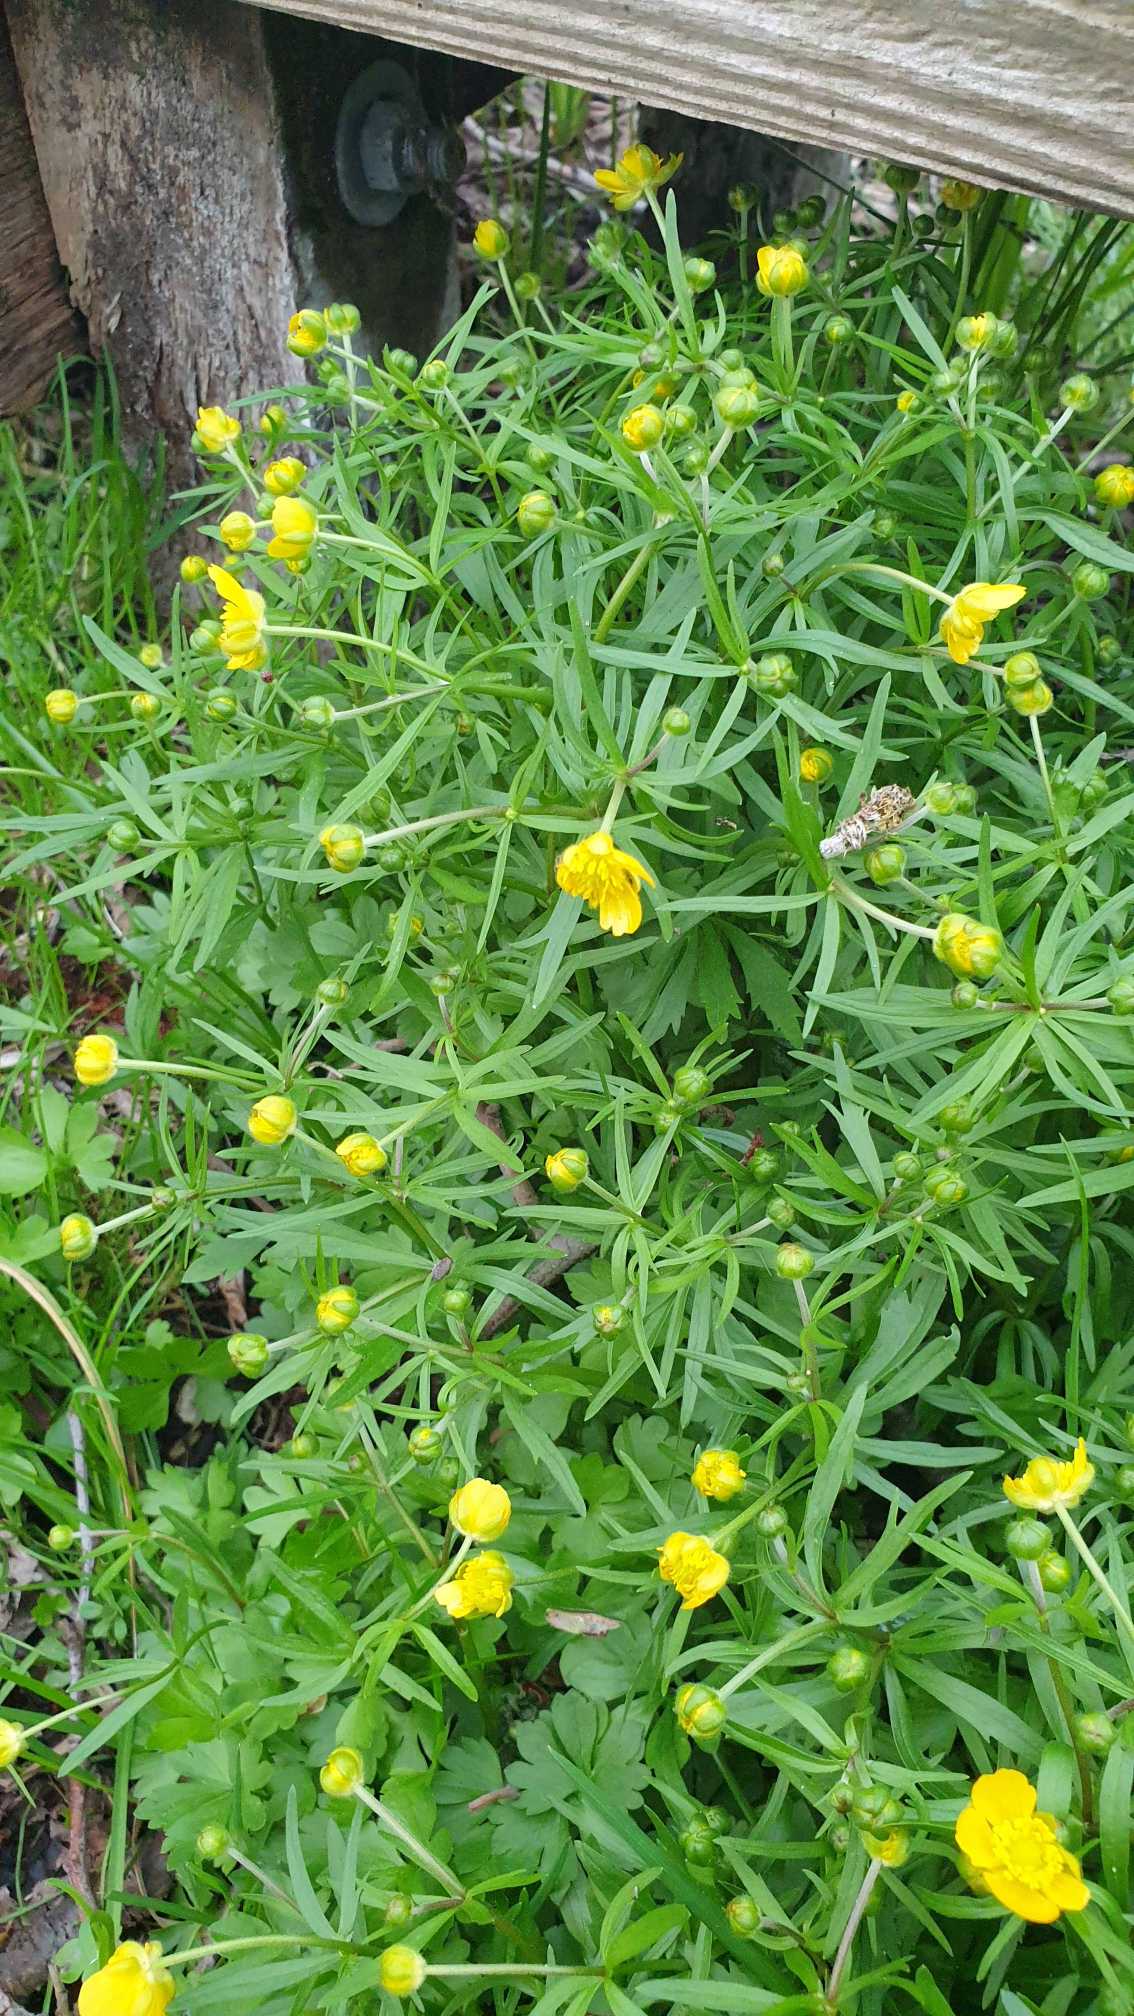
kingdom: Plantae
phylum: Tracheophyta
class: Magnoliopsida
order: Ranunculales
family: Ranunculaceae
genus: Ranunculus
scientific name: Ranunculus auricomus
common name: Nyrebladet ranunkel
